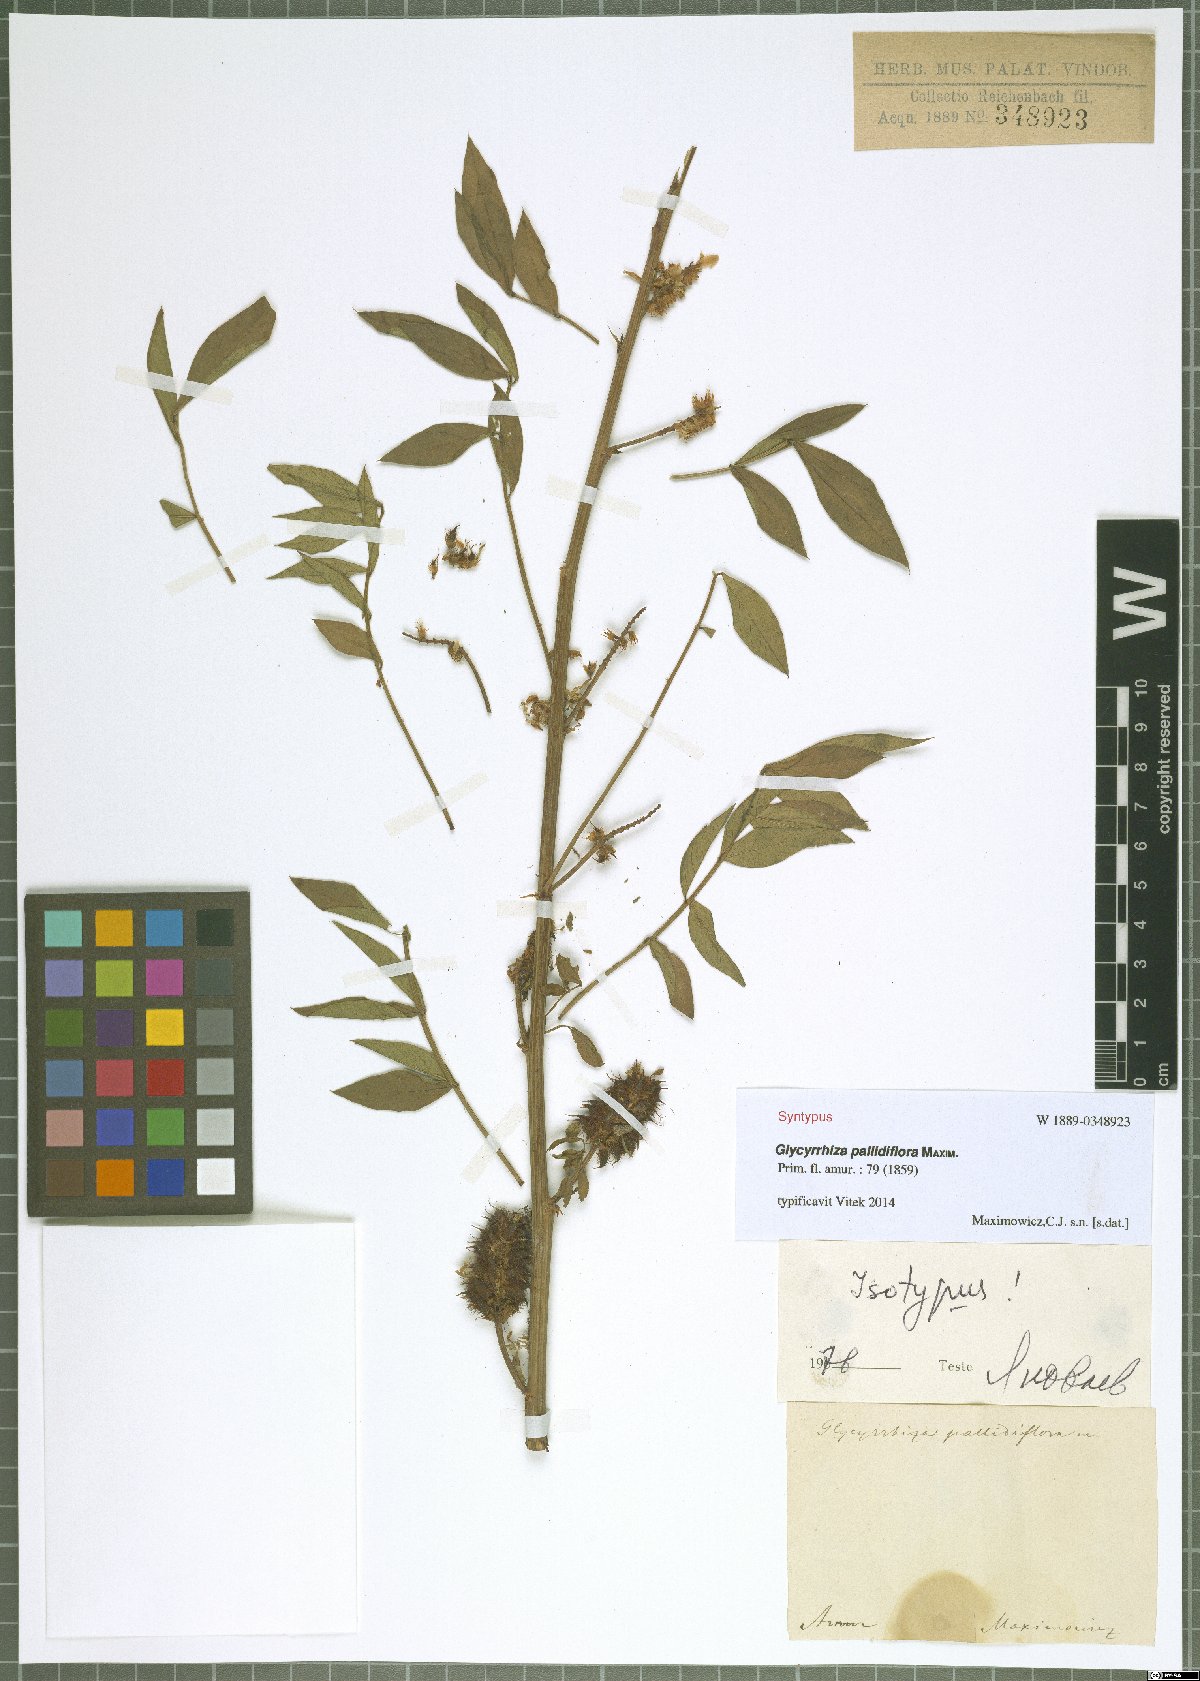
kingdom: Plantae
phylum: Tracheophyta
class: Magnoliopsida
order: Fabales
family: Fabaceae
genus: Glycyrrhiza
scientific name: Glycyrrhiza pallidiflora
